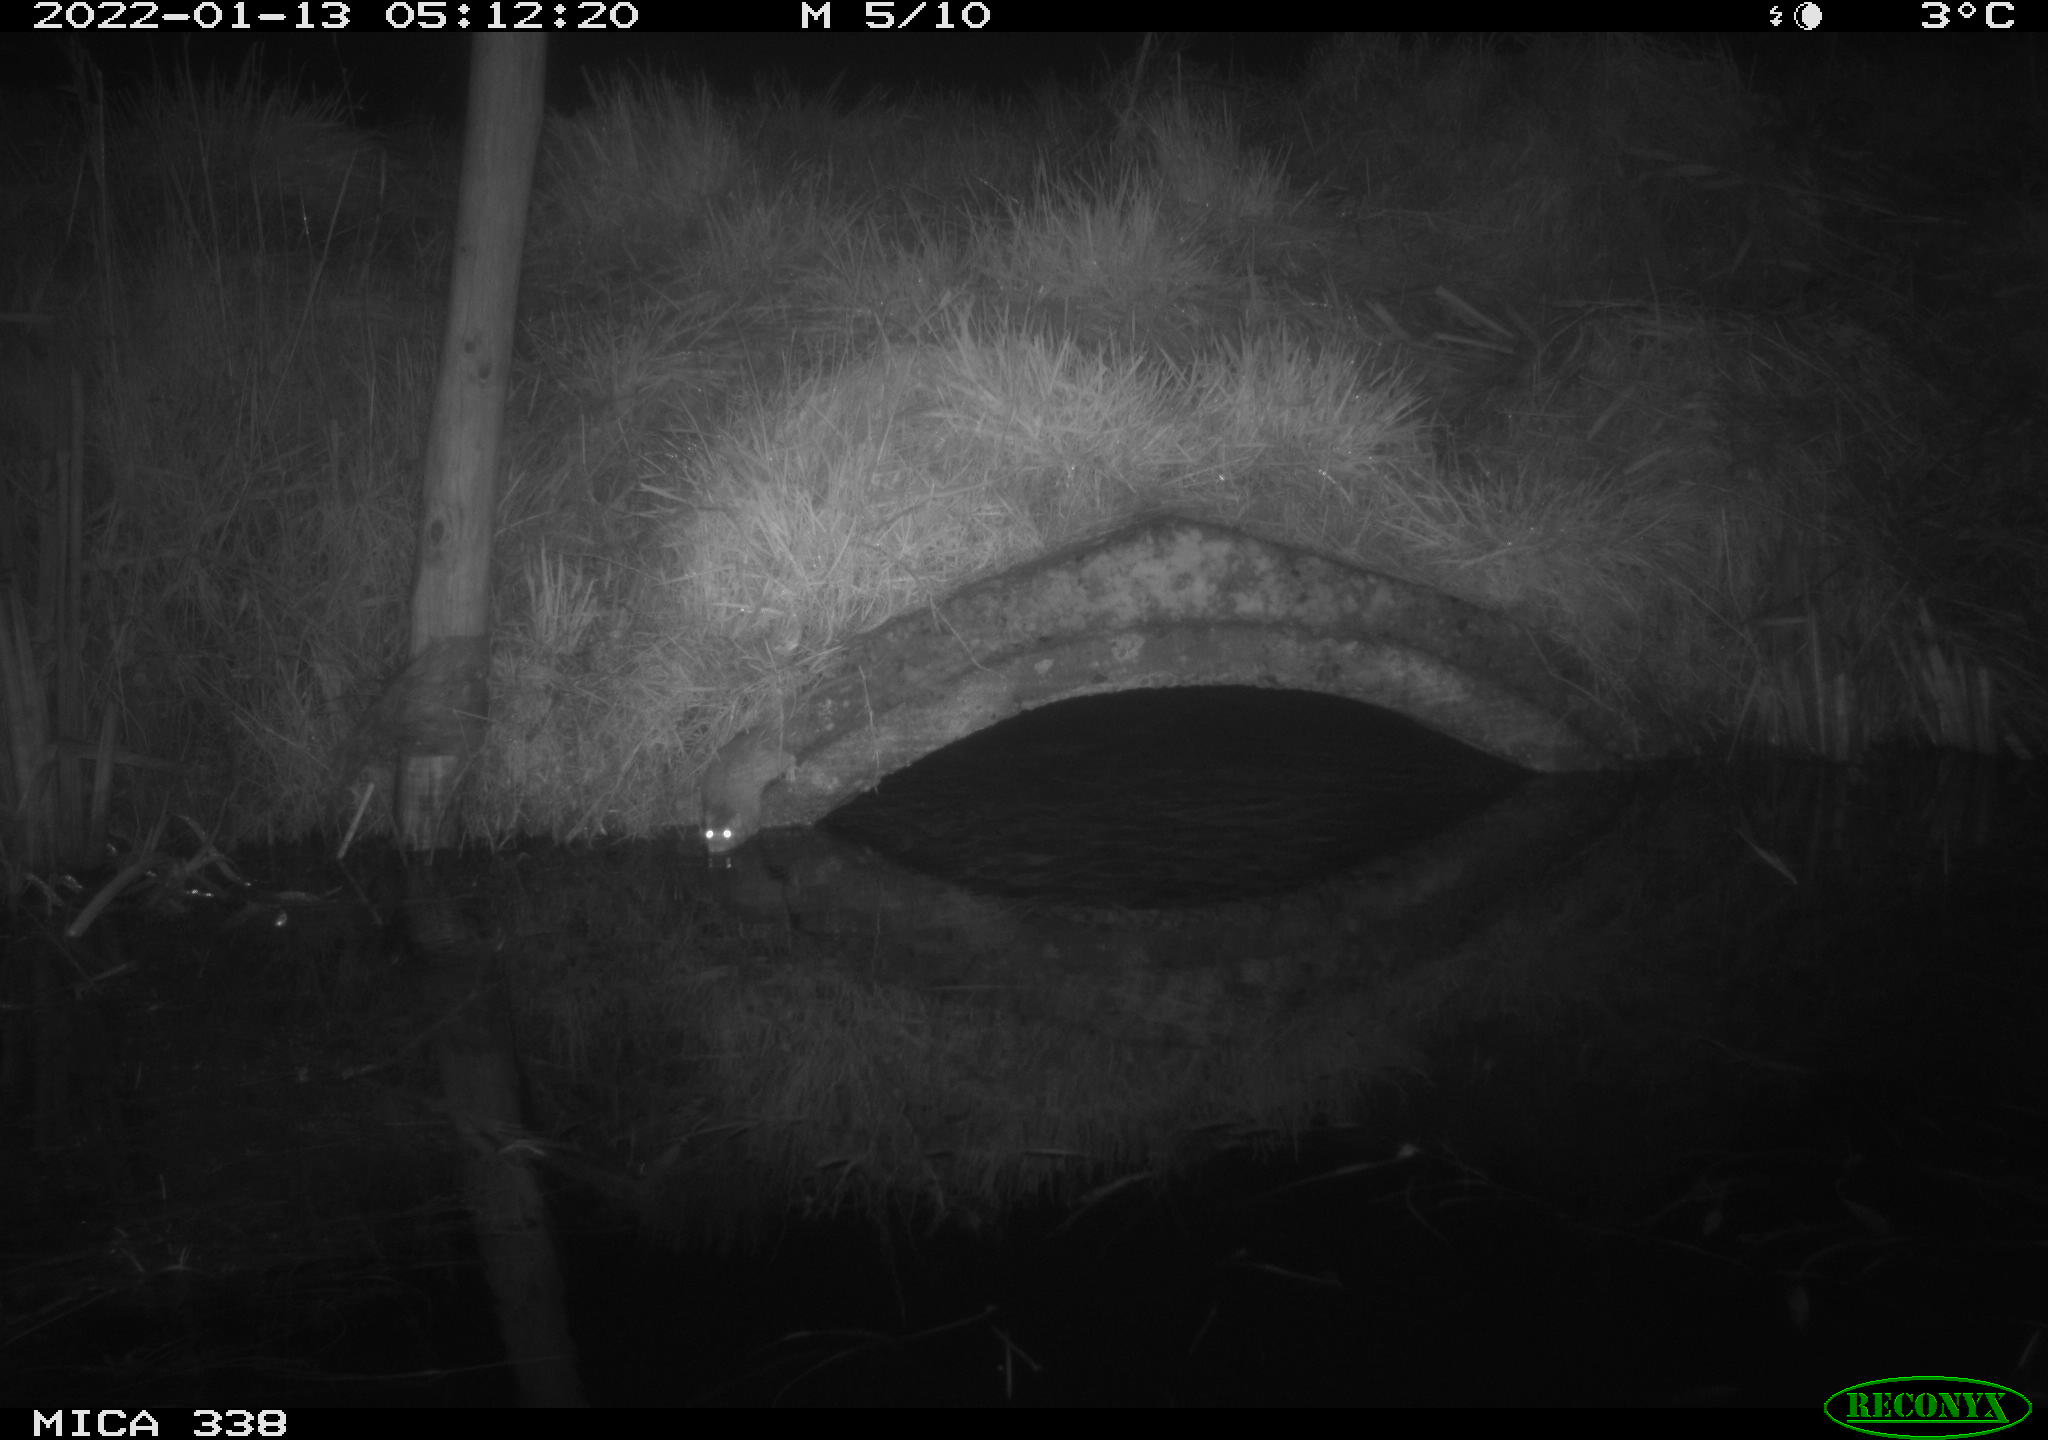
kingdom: Animalia
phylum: Chordata
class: Mammalia
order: Rodentia
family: Muridae
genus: Rattus
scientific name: Rattus norvegicus
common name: Brown rat
